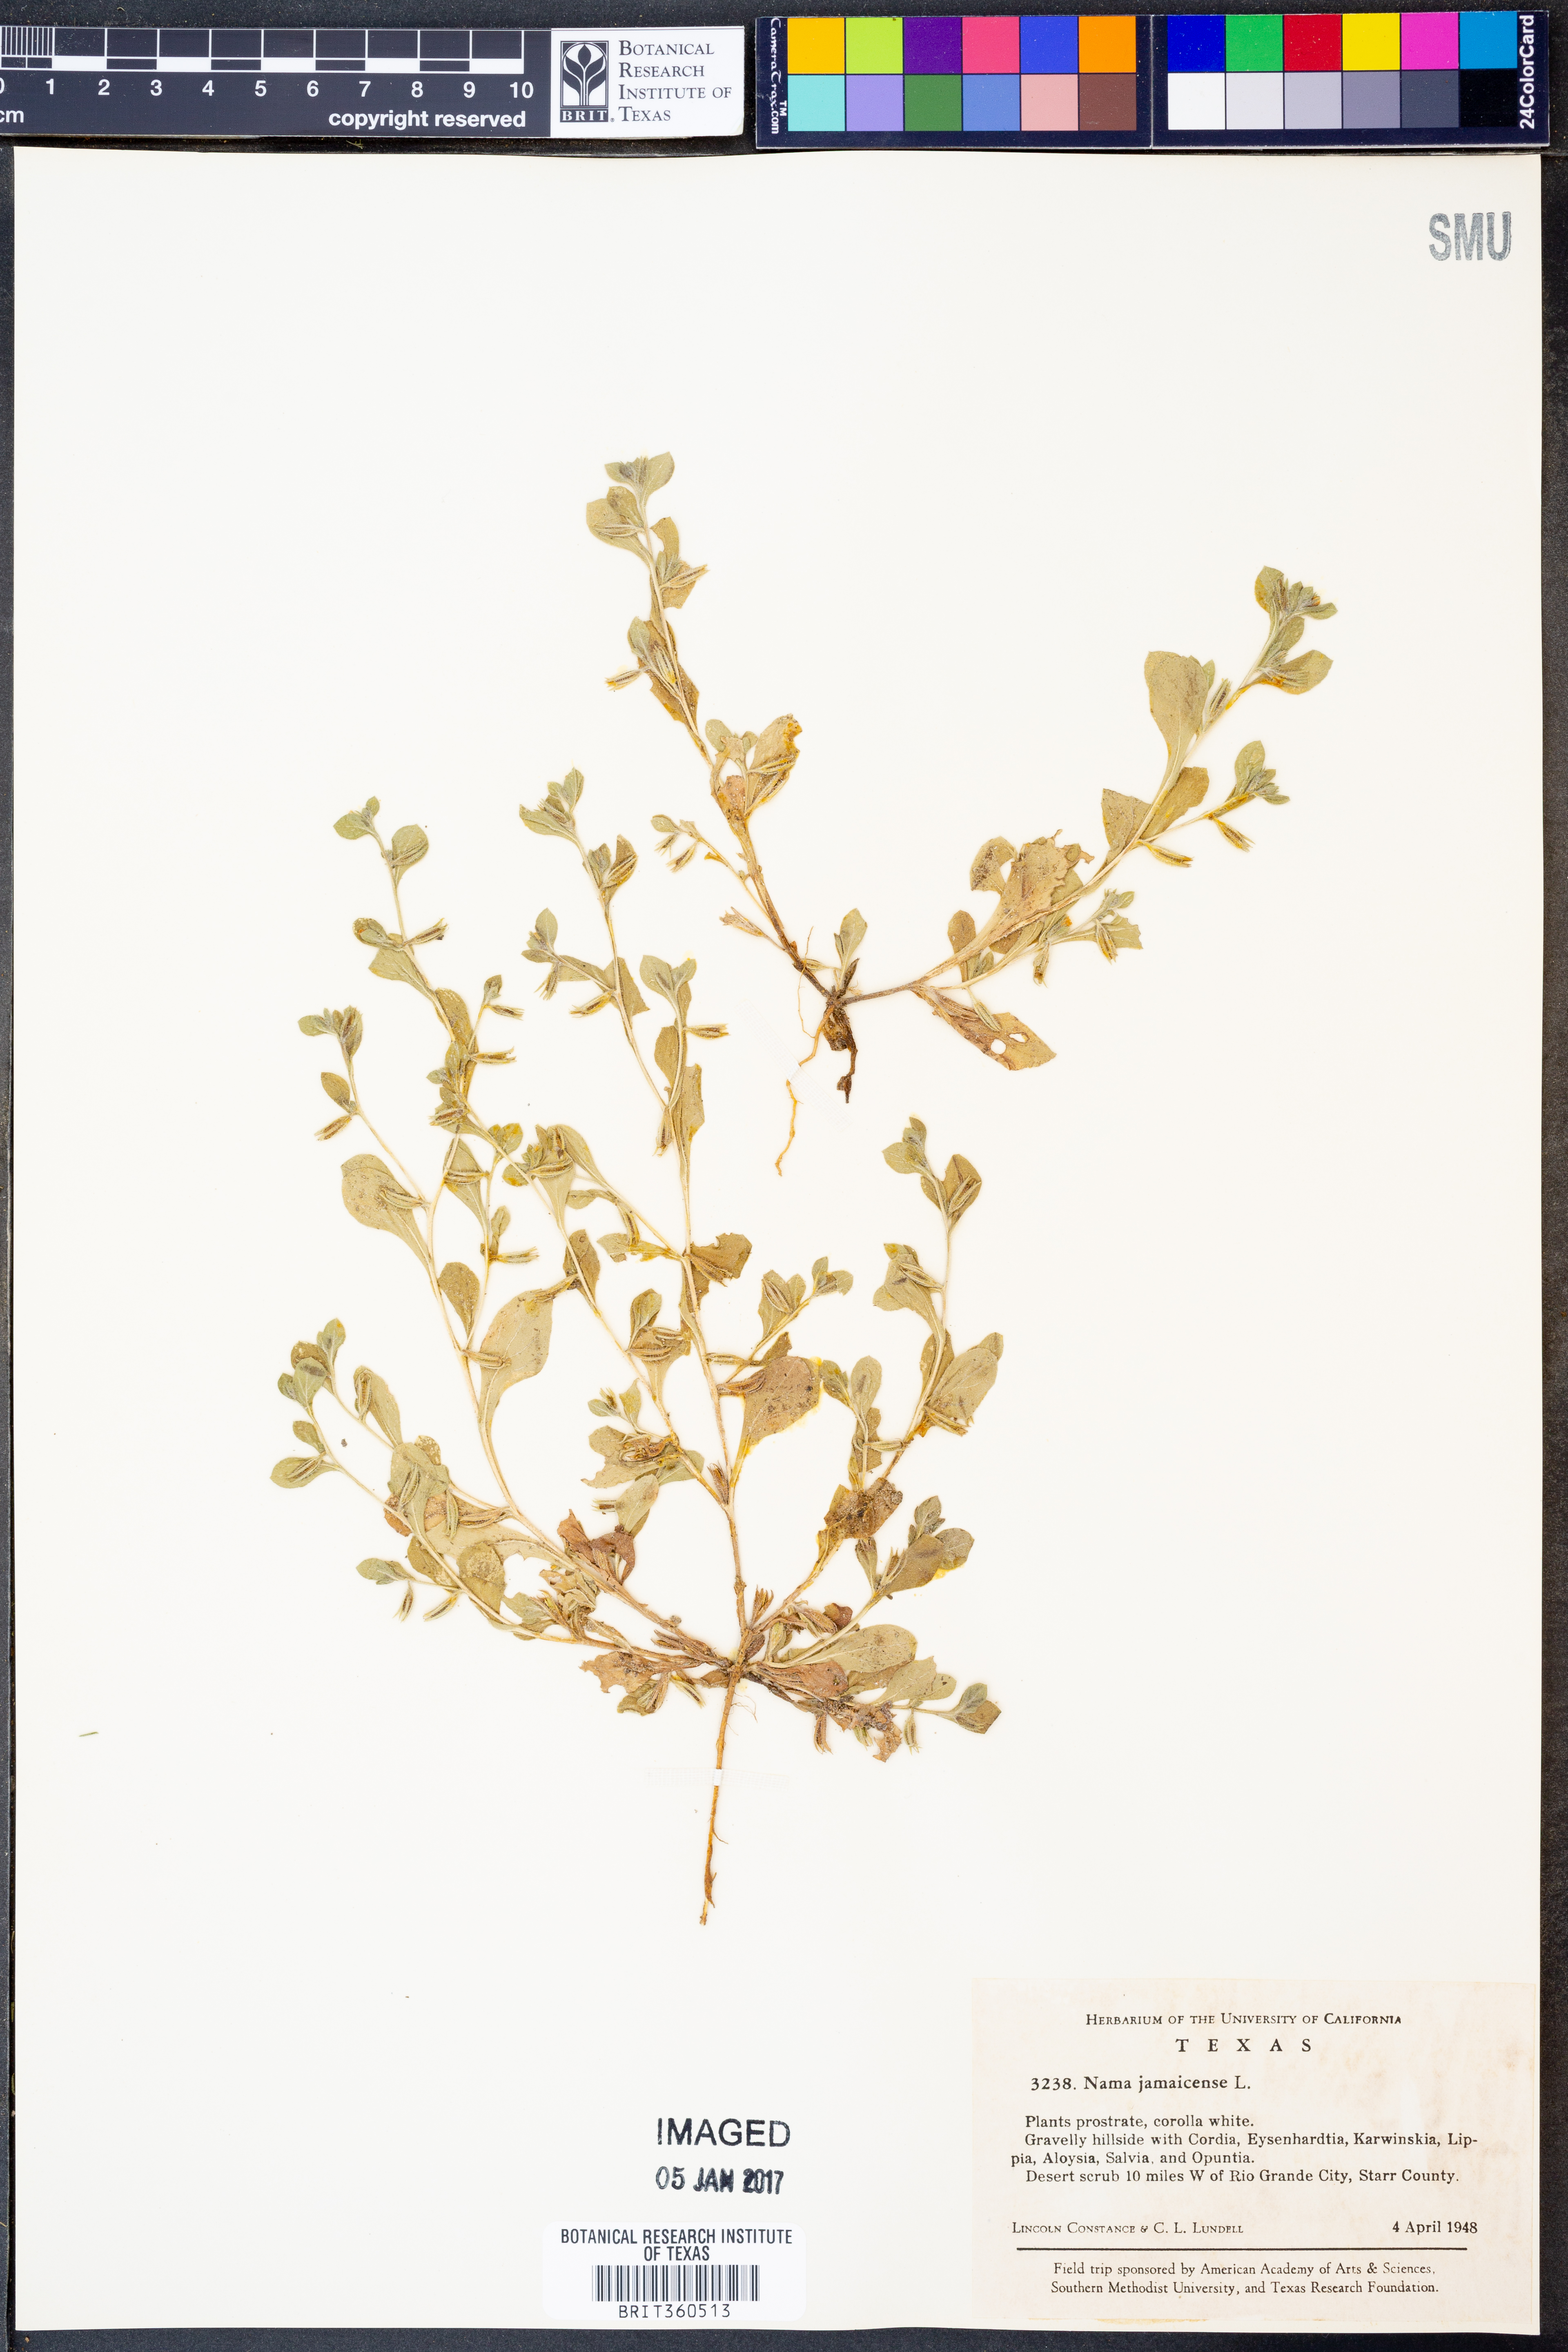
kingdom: Plantae
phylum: Tracheophyta
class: Magnoliopsida
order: Boraginales
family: Namaceae
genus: Nama
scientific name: Nama jamaicense
